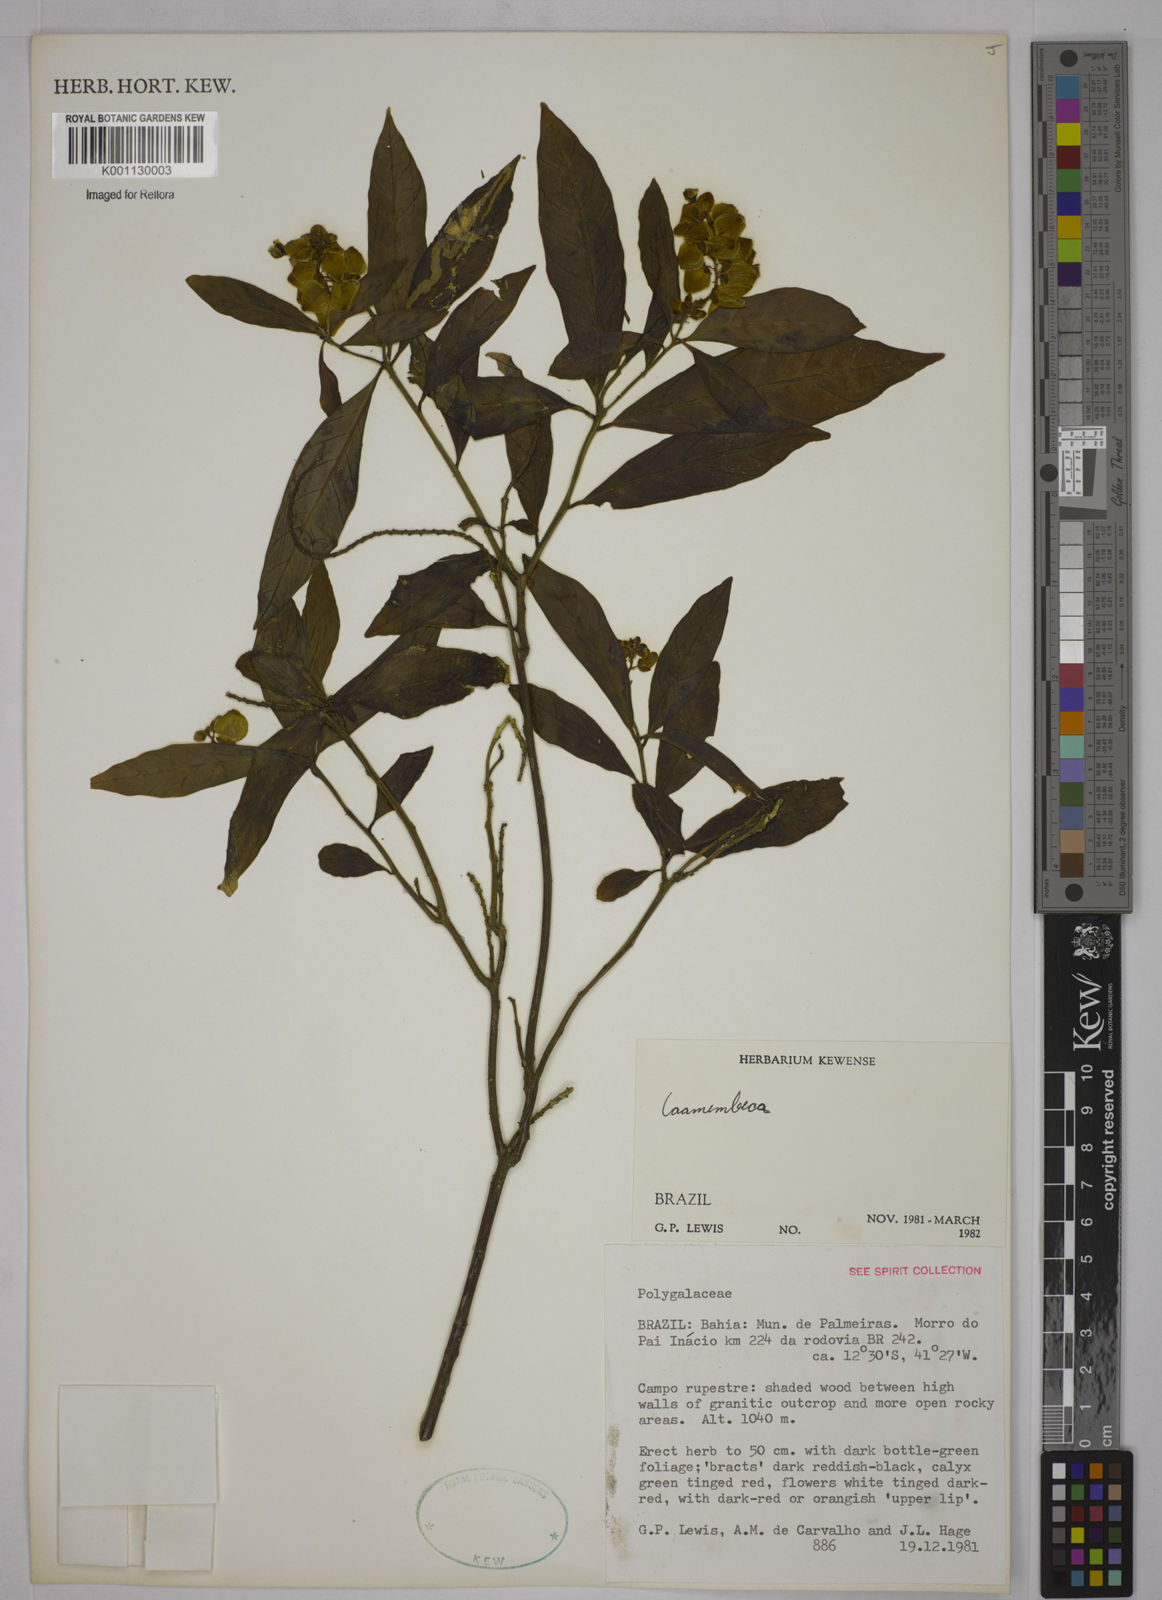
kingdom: Plantae
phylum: Tracheophyta
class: Magnoliopsida
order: Fabales
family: Polygalaceae
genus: Polygala
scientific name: Polygala
